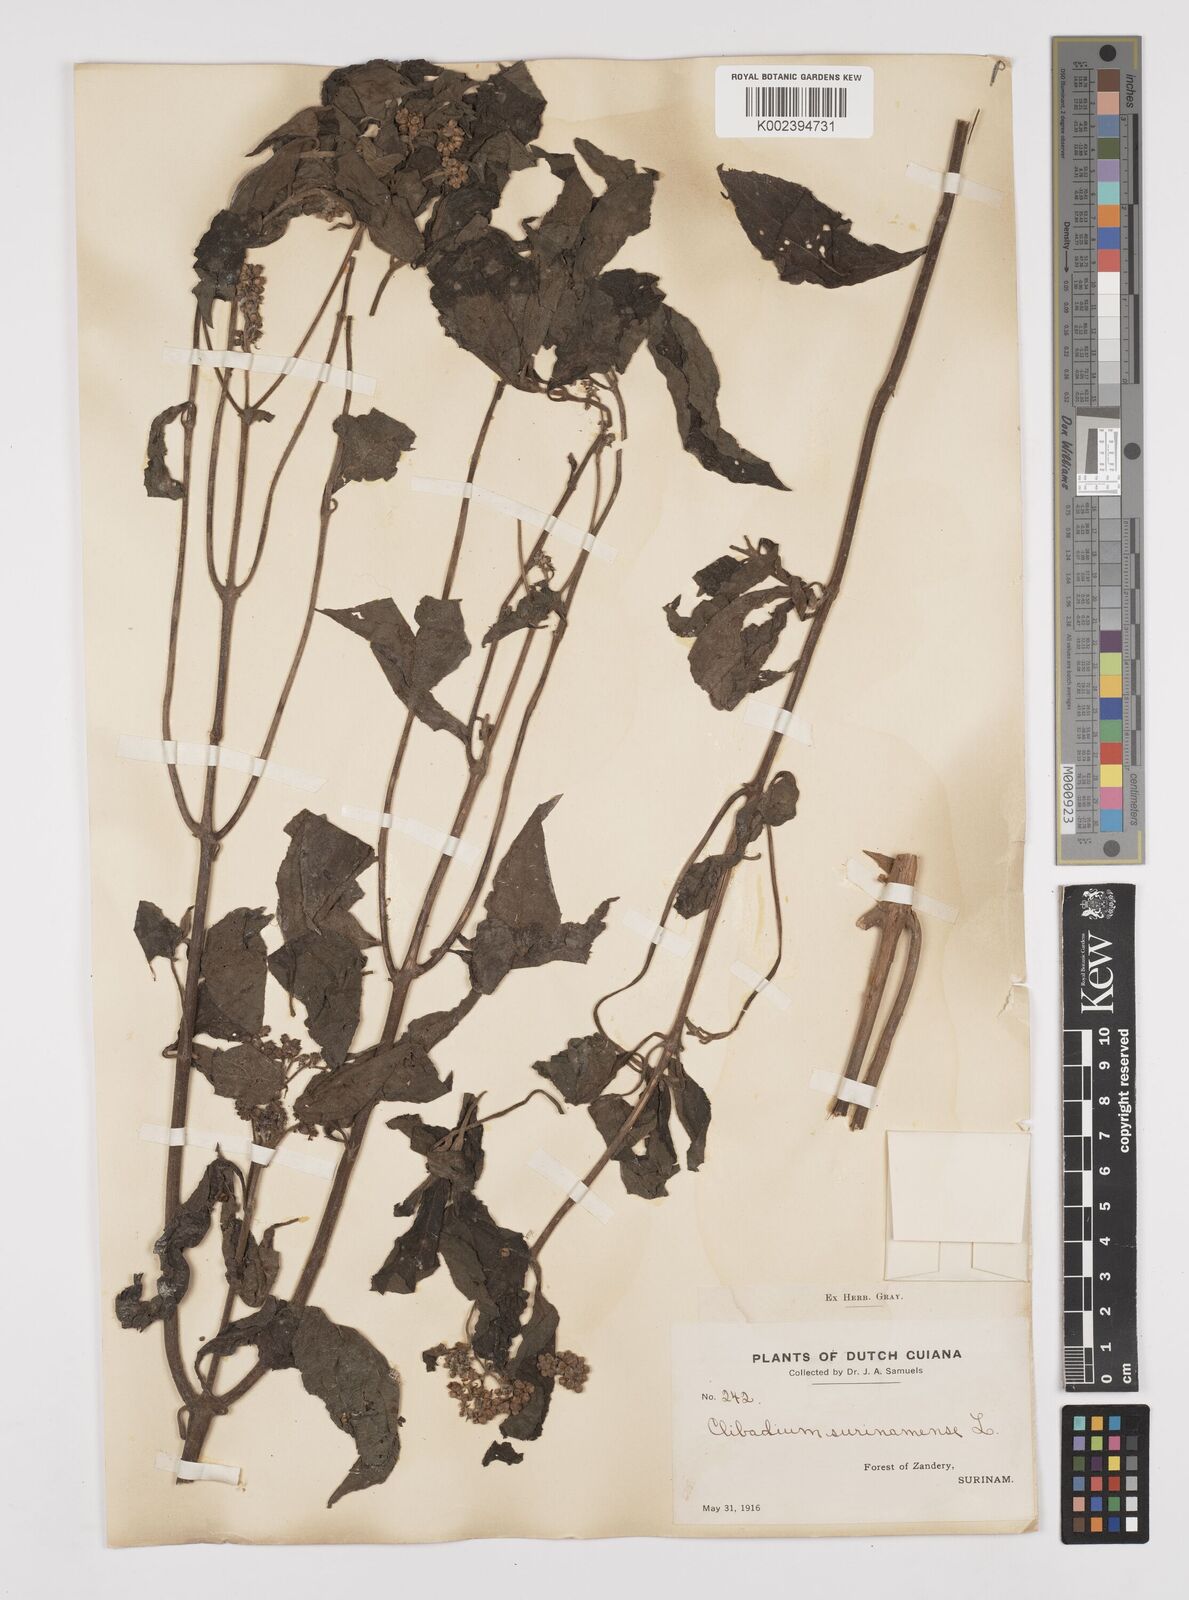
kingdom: Plantae
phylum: Tracheophyta
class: Magnoliopsida
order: Asterales
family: Asteraceae
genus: Clibadium
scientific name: Clibadium surinamense
